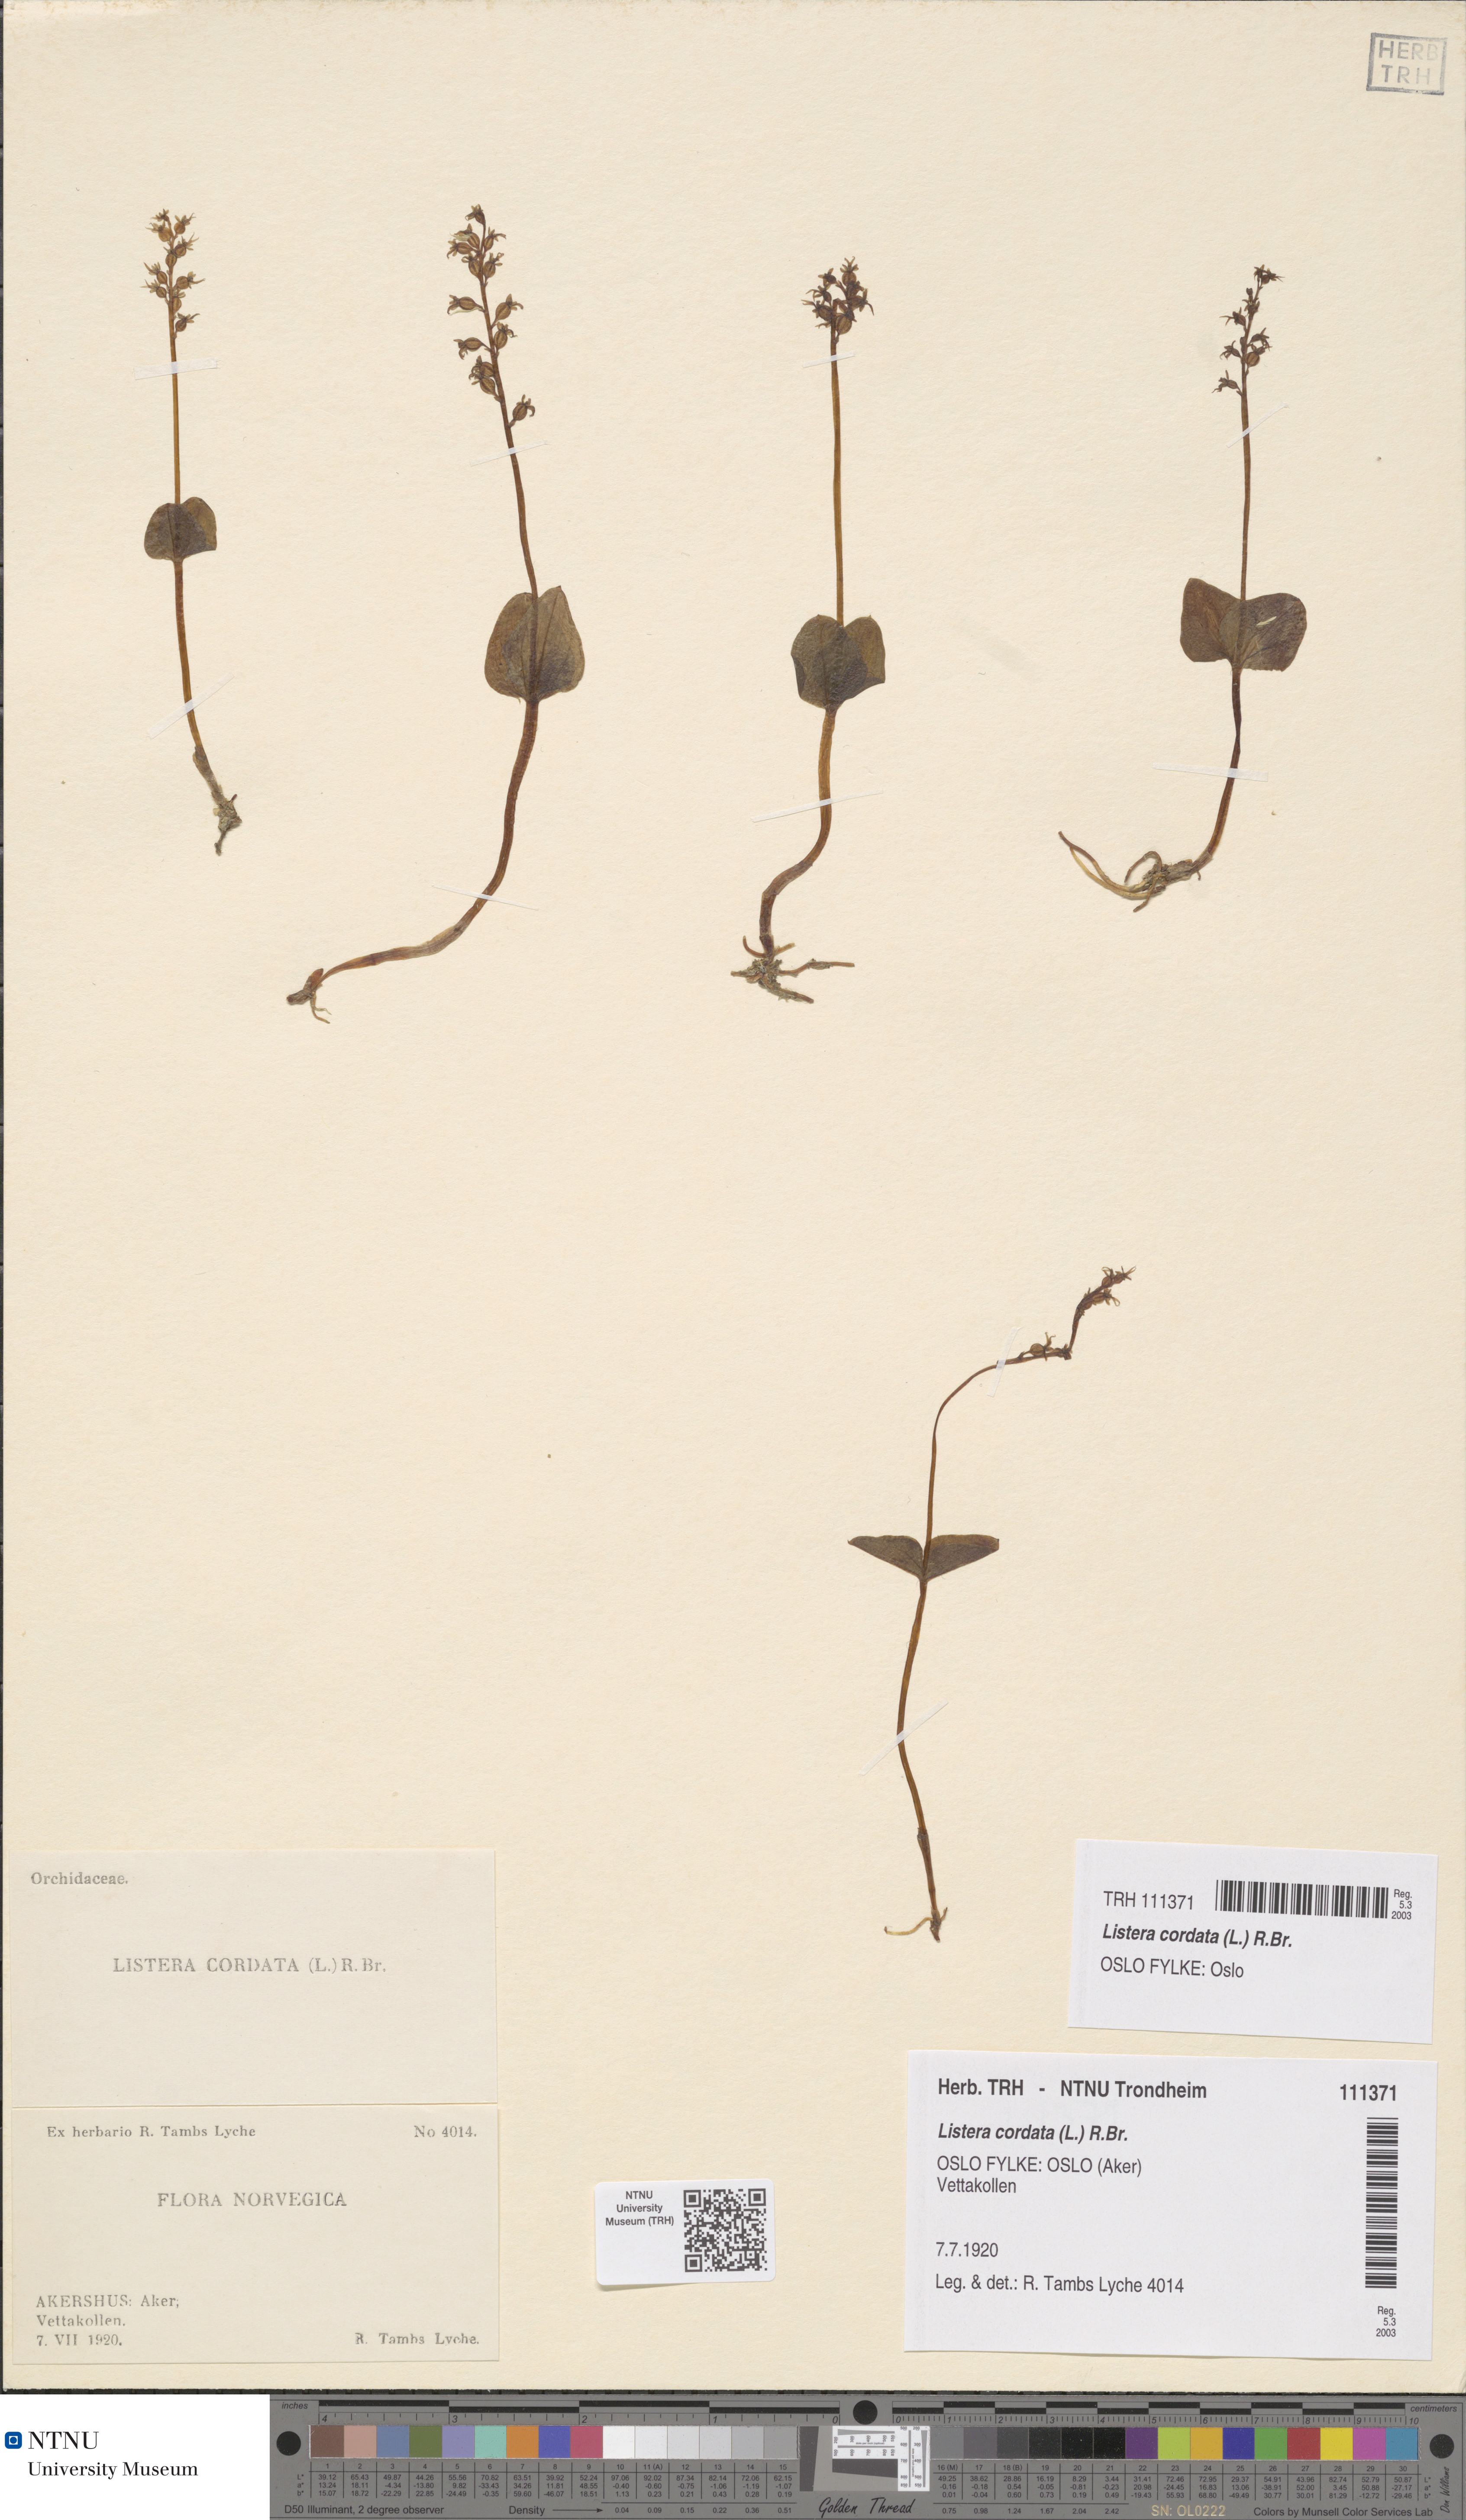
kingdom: Plantae
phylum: Tracheophyta
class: Liliopsida
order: Asparagales
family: Orchidaceae
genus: Neottia
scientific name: Neottia cordata
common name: Lesser twayblade
